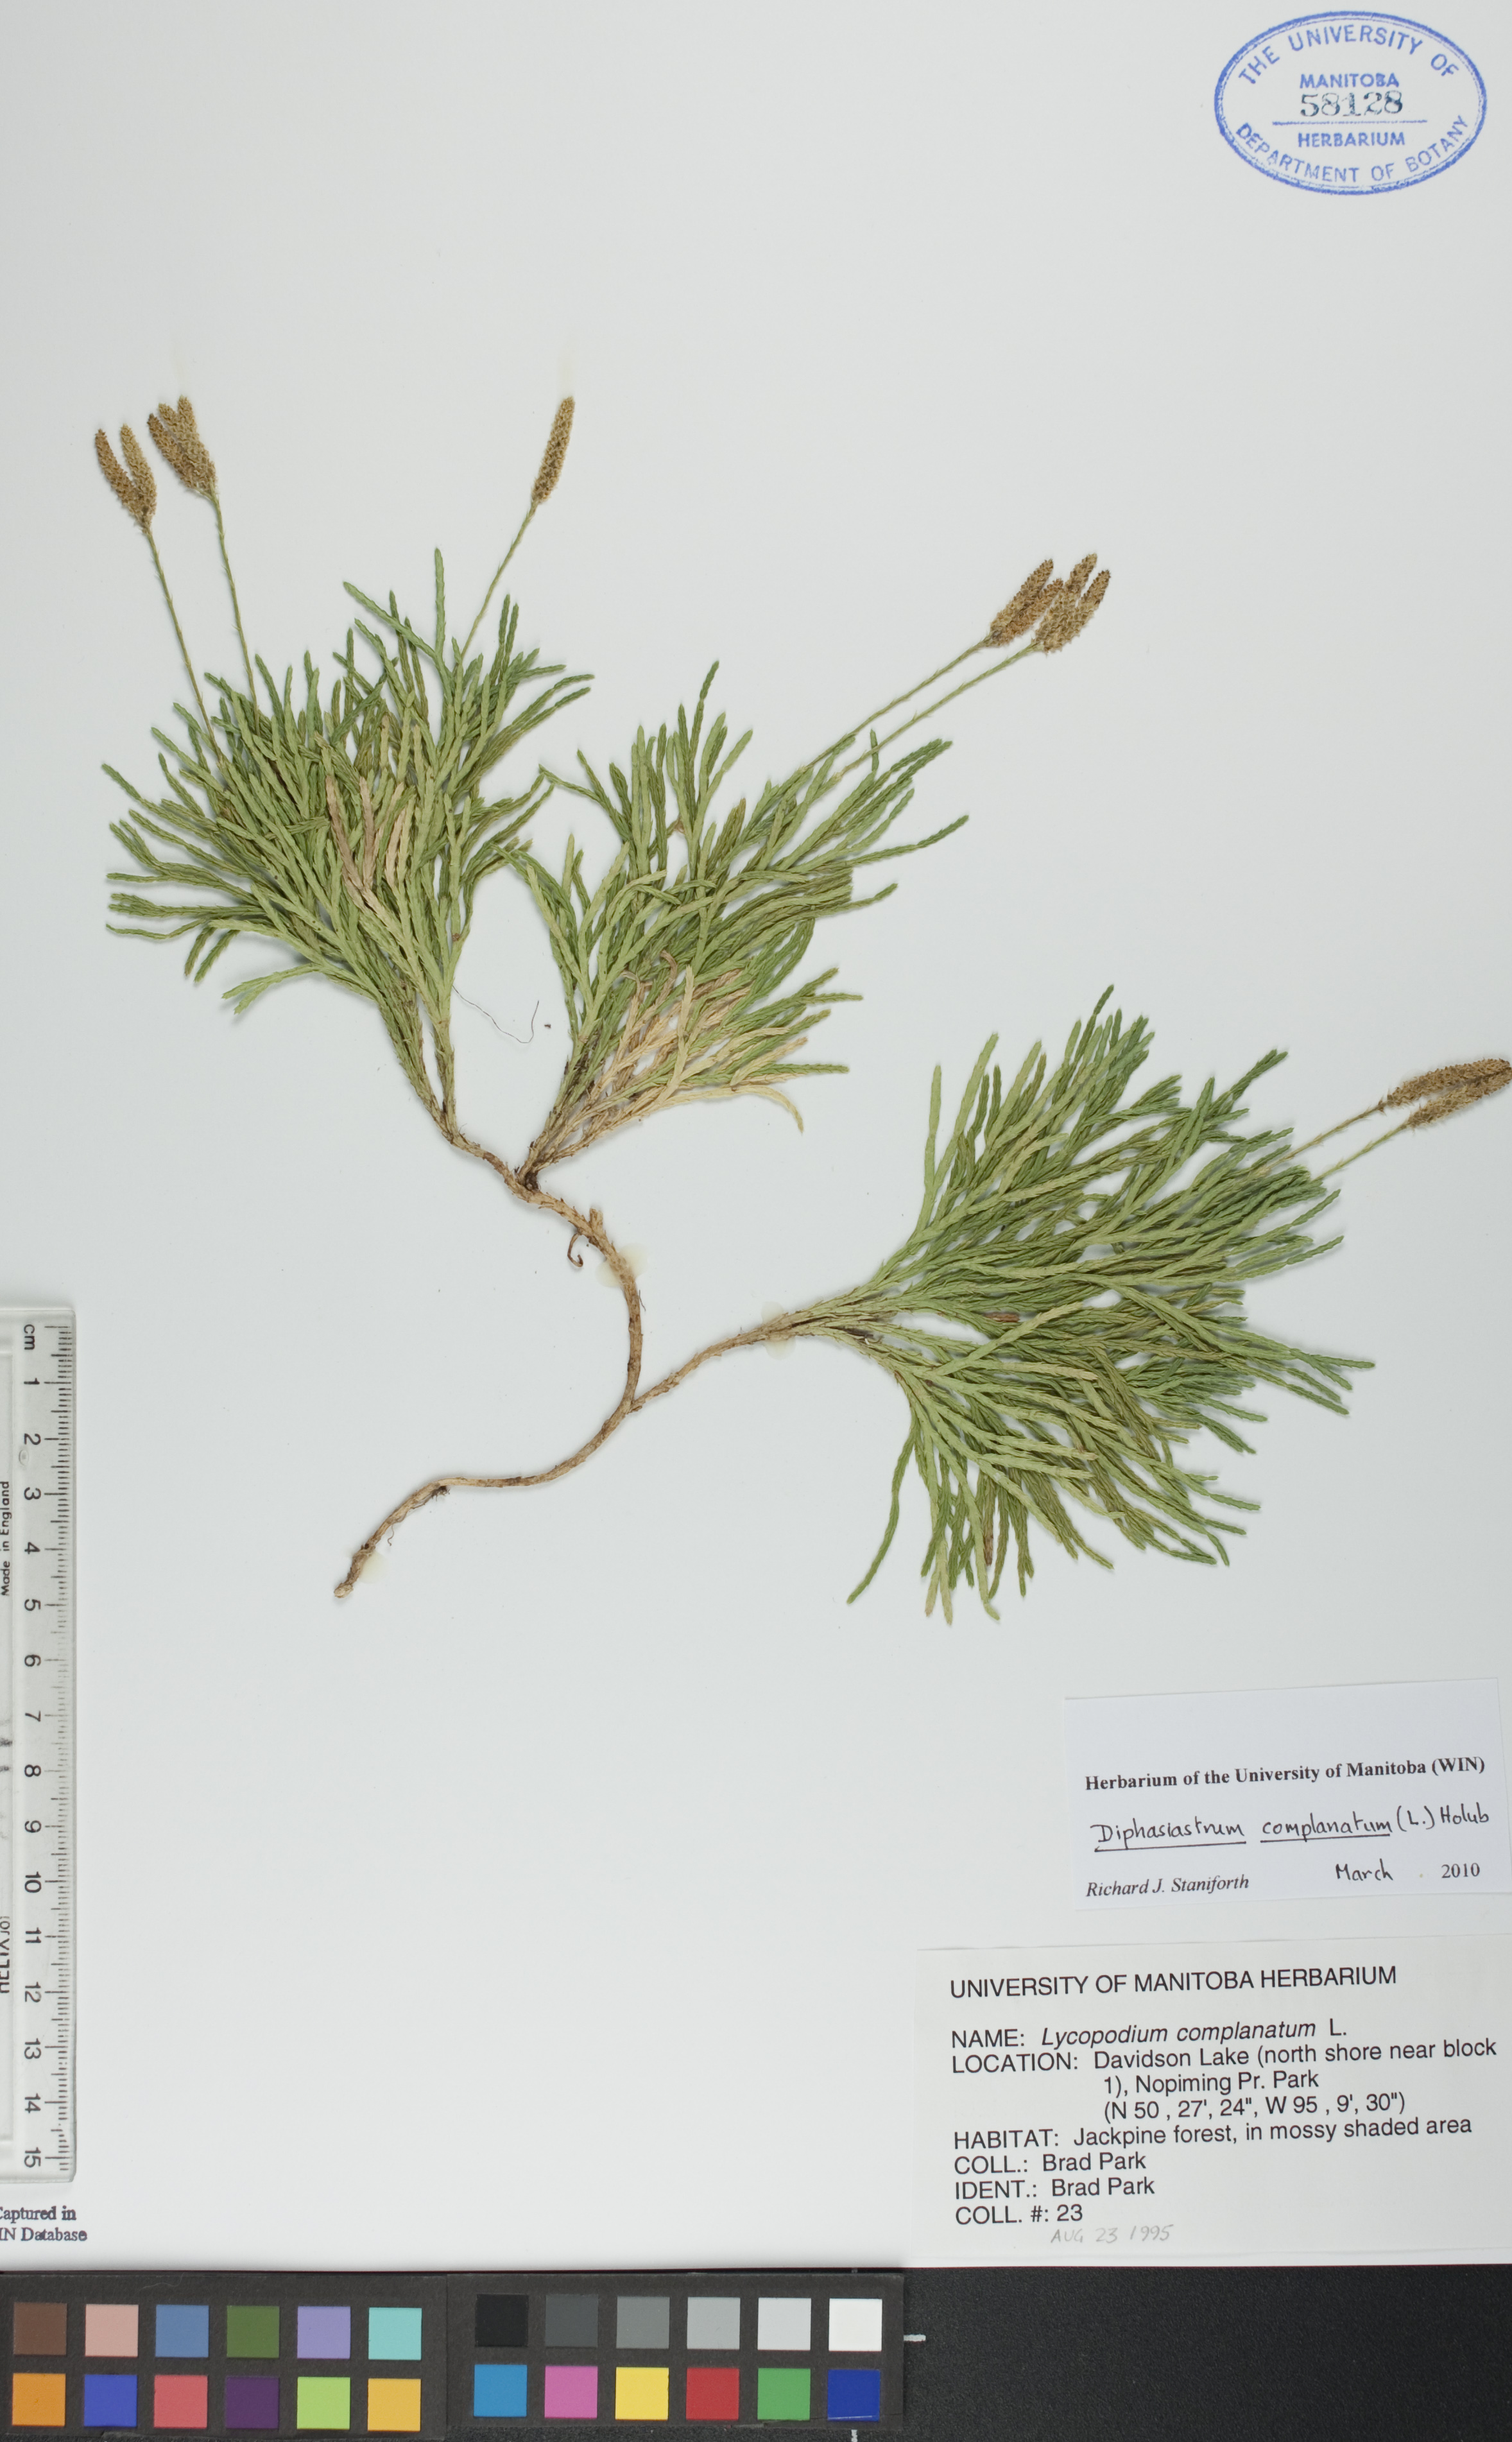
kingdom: Plantae
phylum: Tracheophyta
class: Lycopodiopsida
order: Lycopodiales
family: Lycopodiaceae
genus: Diphasiastrum
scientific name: Diphasiastrum complanatum
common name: Northern running-pine
